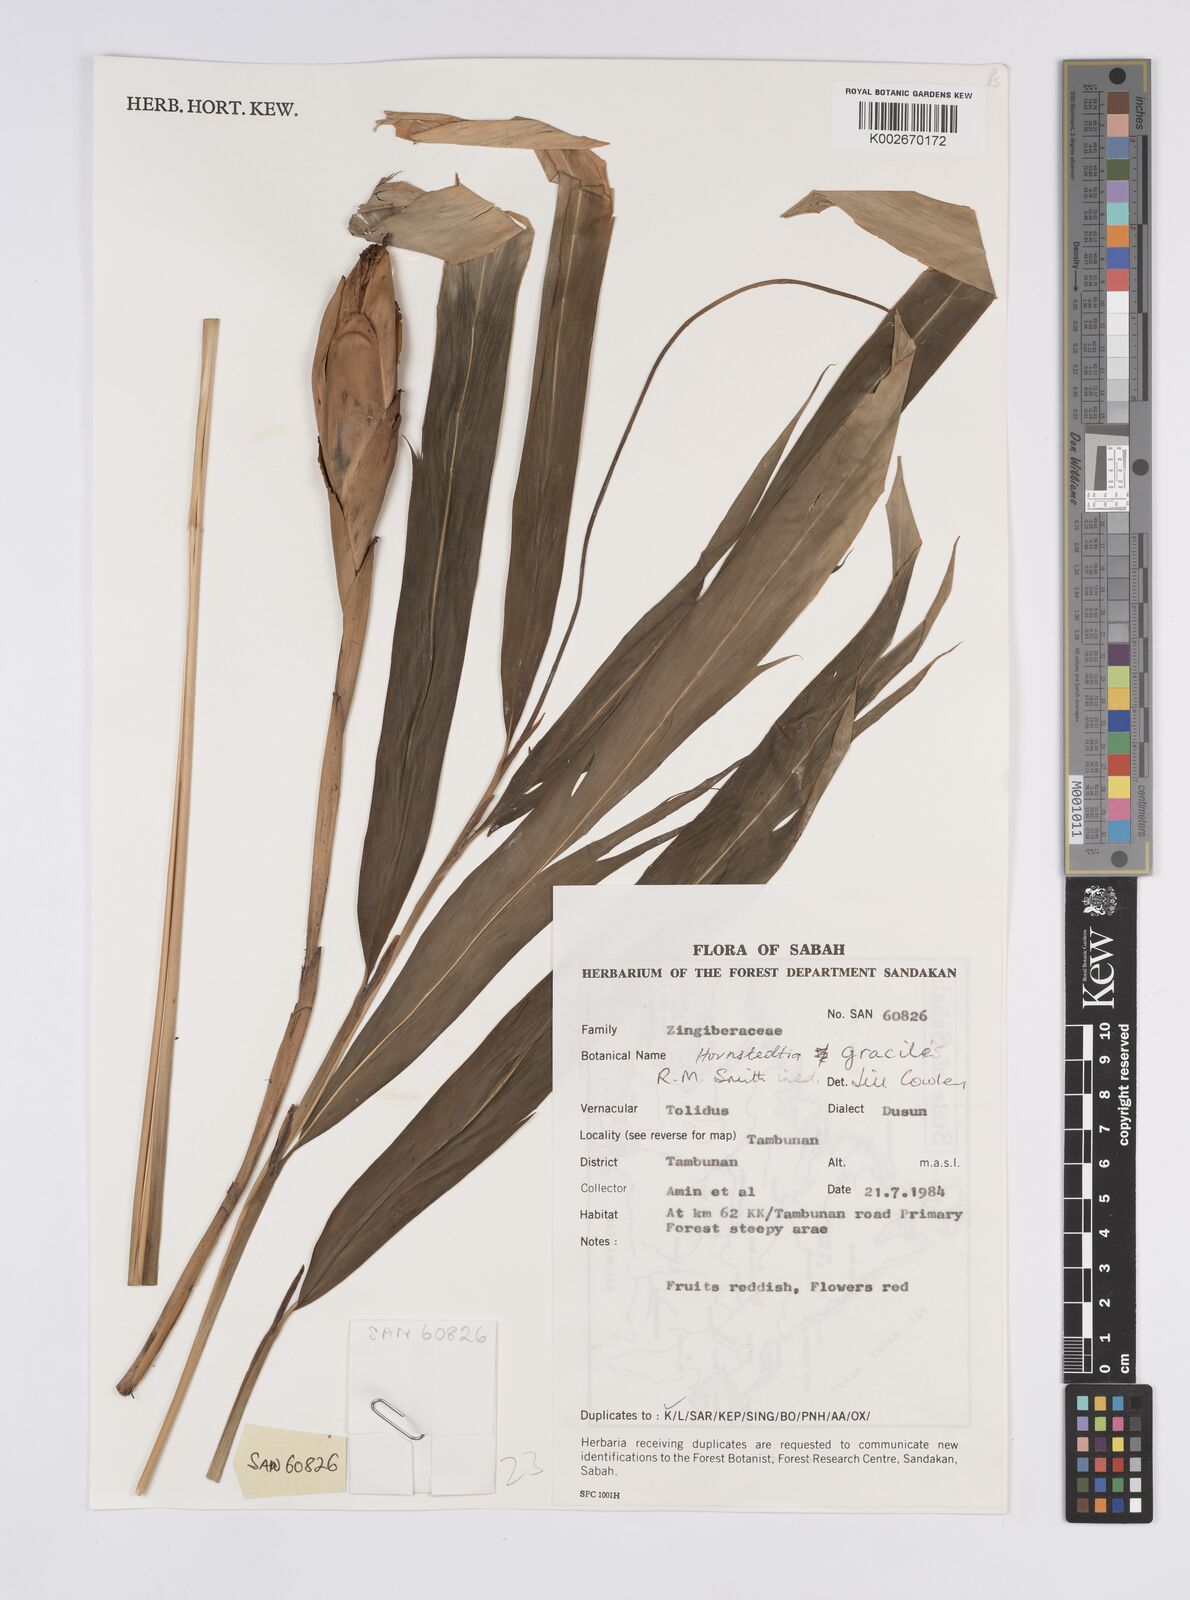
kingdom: Plantae
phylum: Tracheophyta
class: Liliopsida
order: Zingiberales
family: Zingiberaceae
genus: Hornstedtia
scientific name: Hornstedtia gracilis
